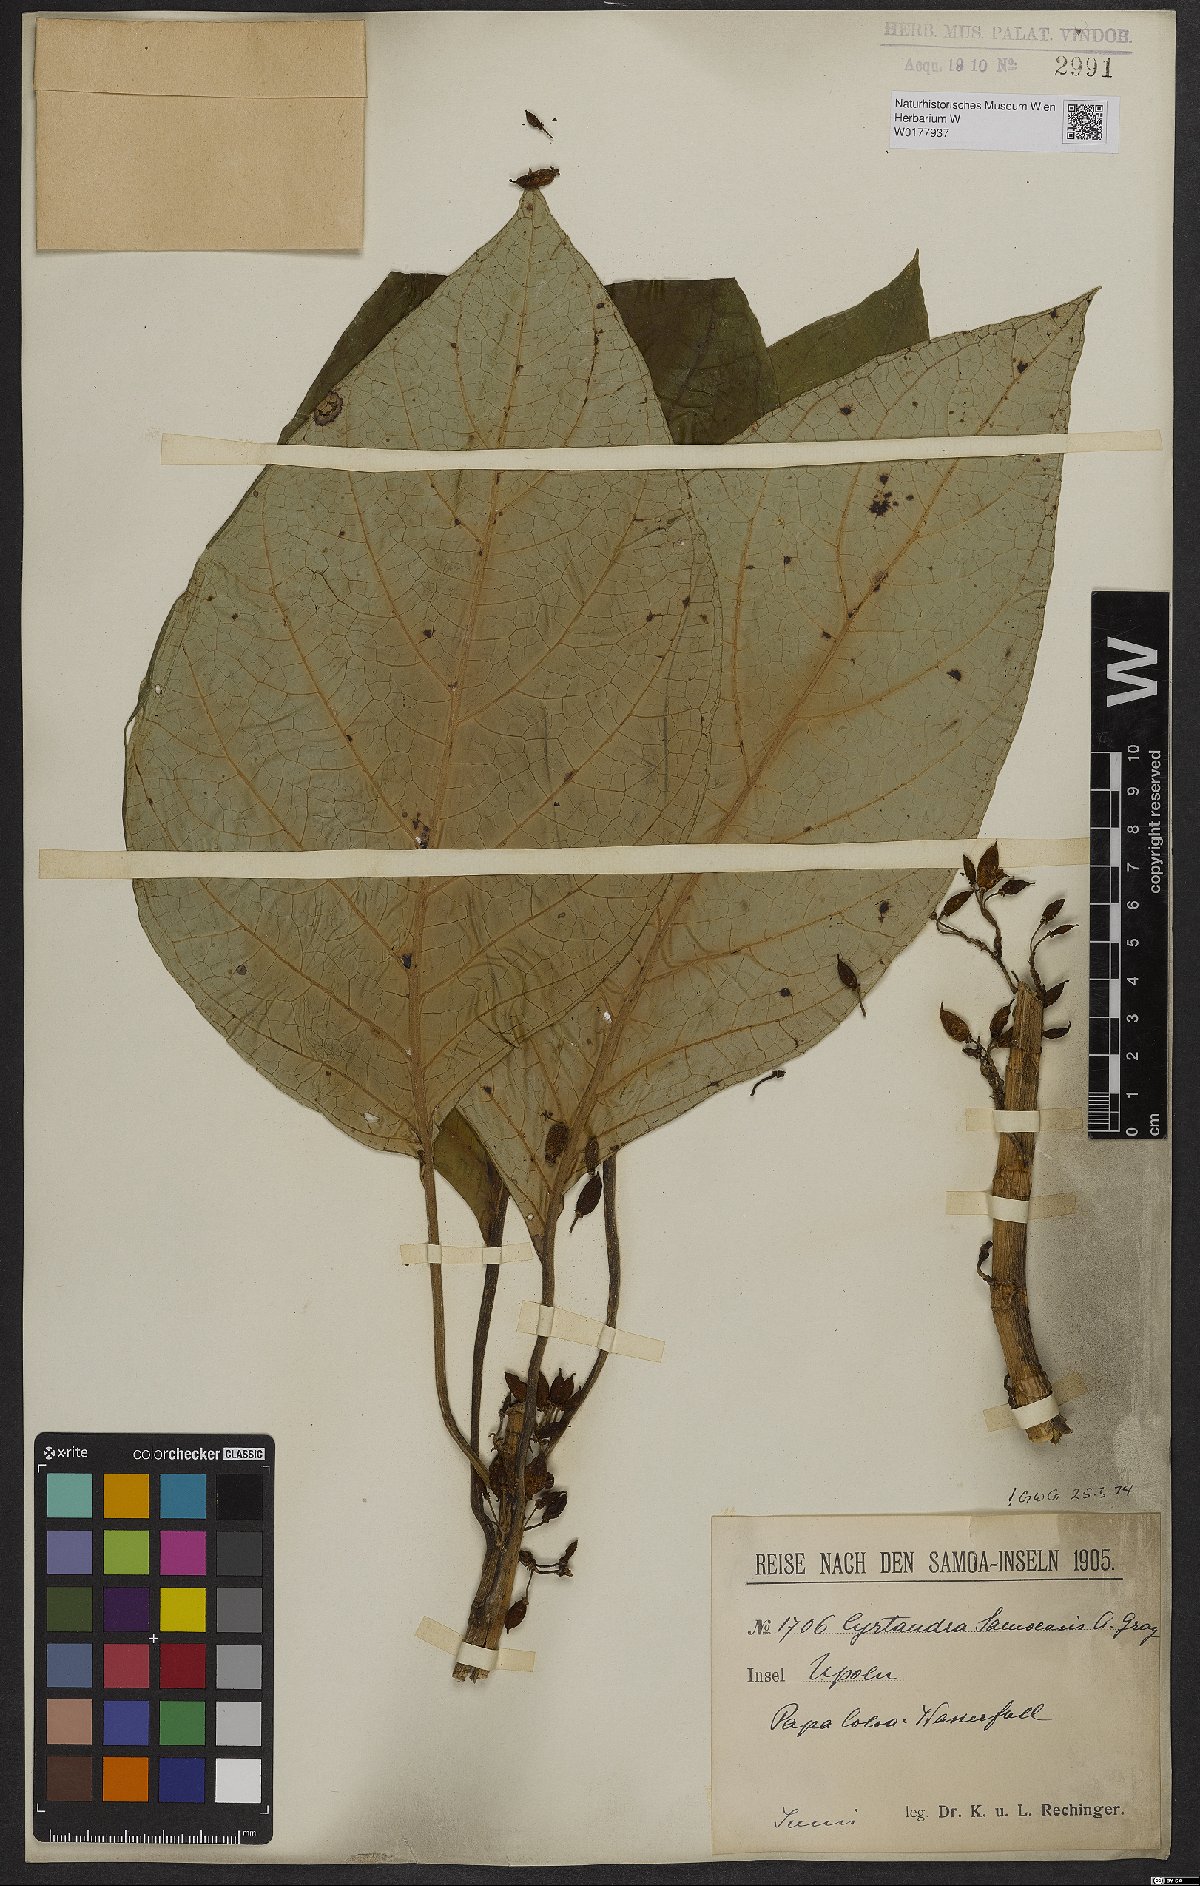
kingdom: Plantae
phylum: Tracheophyta
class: Magnoliopsida
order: Lamiales
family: Gesneriaceae
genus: Cyrtandra
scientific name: Cyrtandra samoensis
